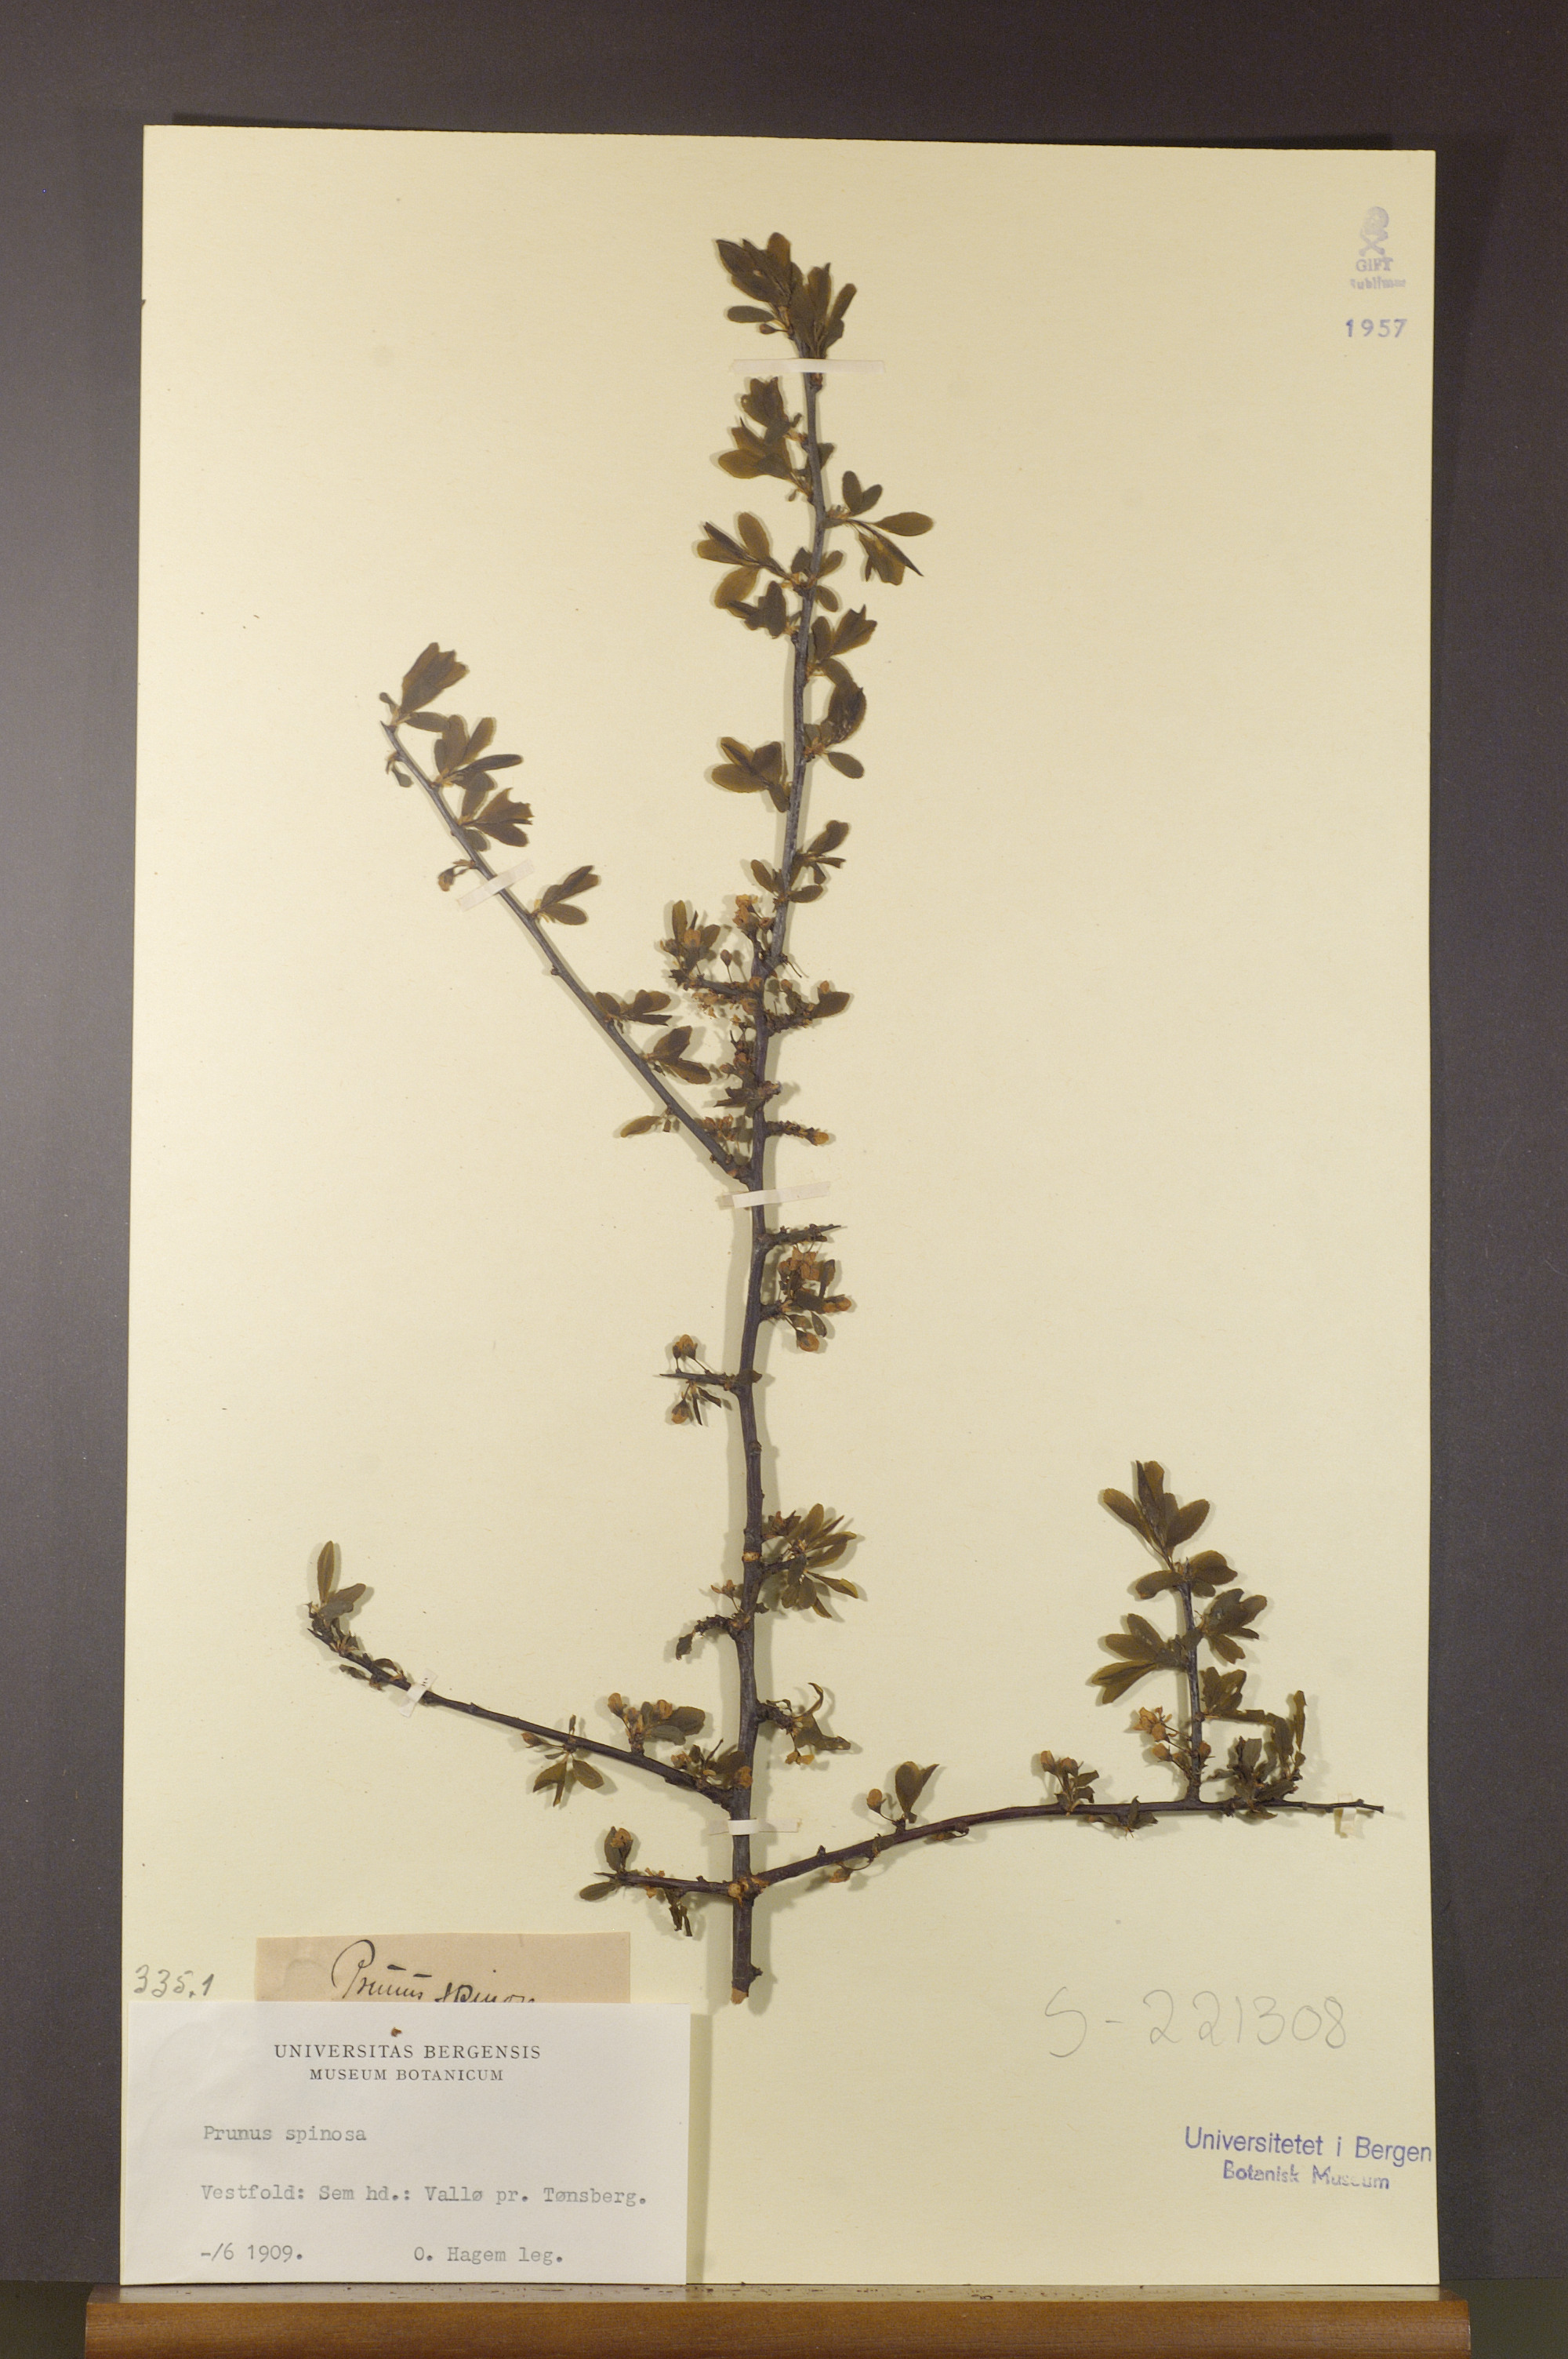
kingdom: Plantae
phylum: Tracheophyta
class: Magnoliopsida
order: Rosales
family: Rosaceae
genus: Prunus
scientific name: Prunus spinosa
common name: Blackthorn
